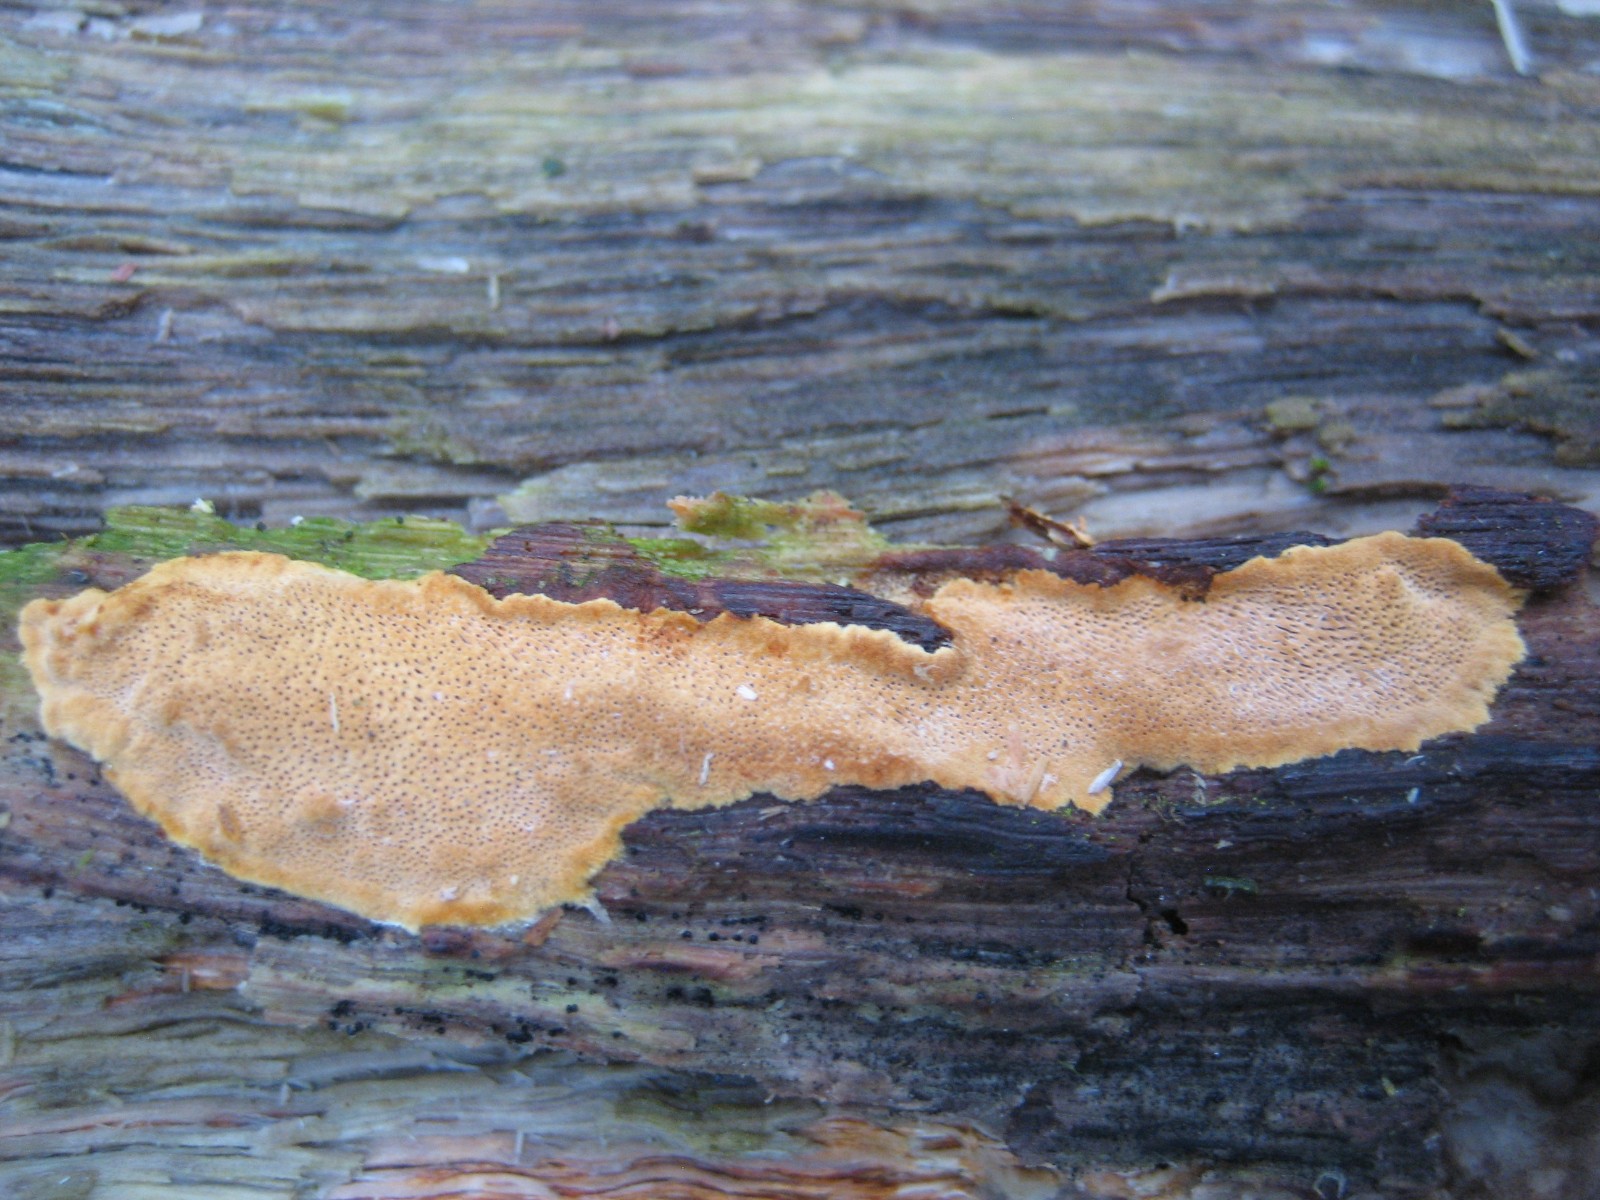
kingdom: Fungi
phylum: Basidiomycota
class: Agaricomycetes
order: Hymenochaetales
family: Hymenochaetaceae
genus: Fuscoporia
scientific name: Fuscoporia ferrea
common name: skorpe-ildporesvamp
